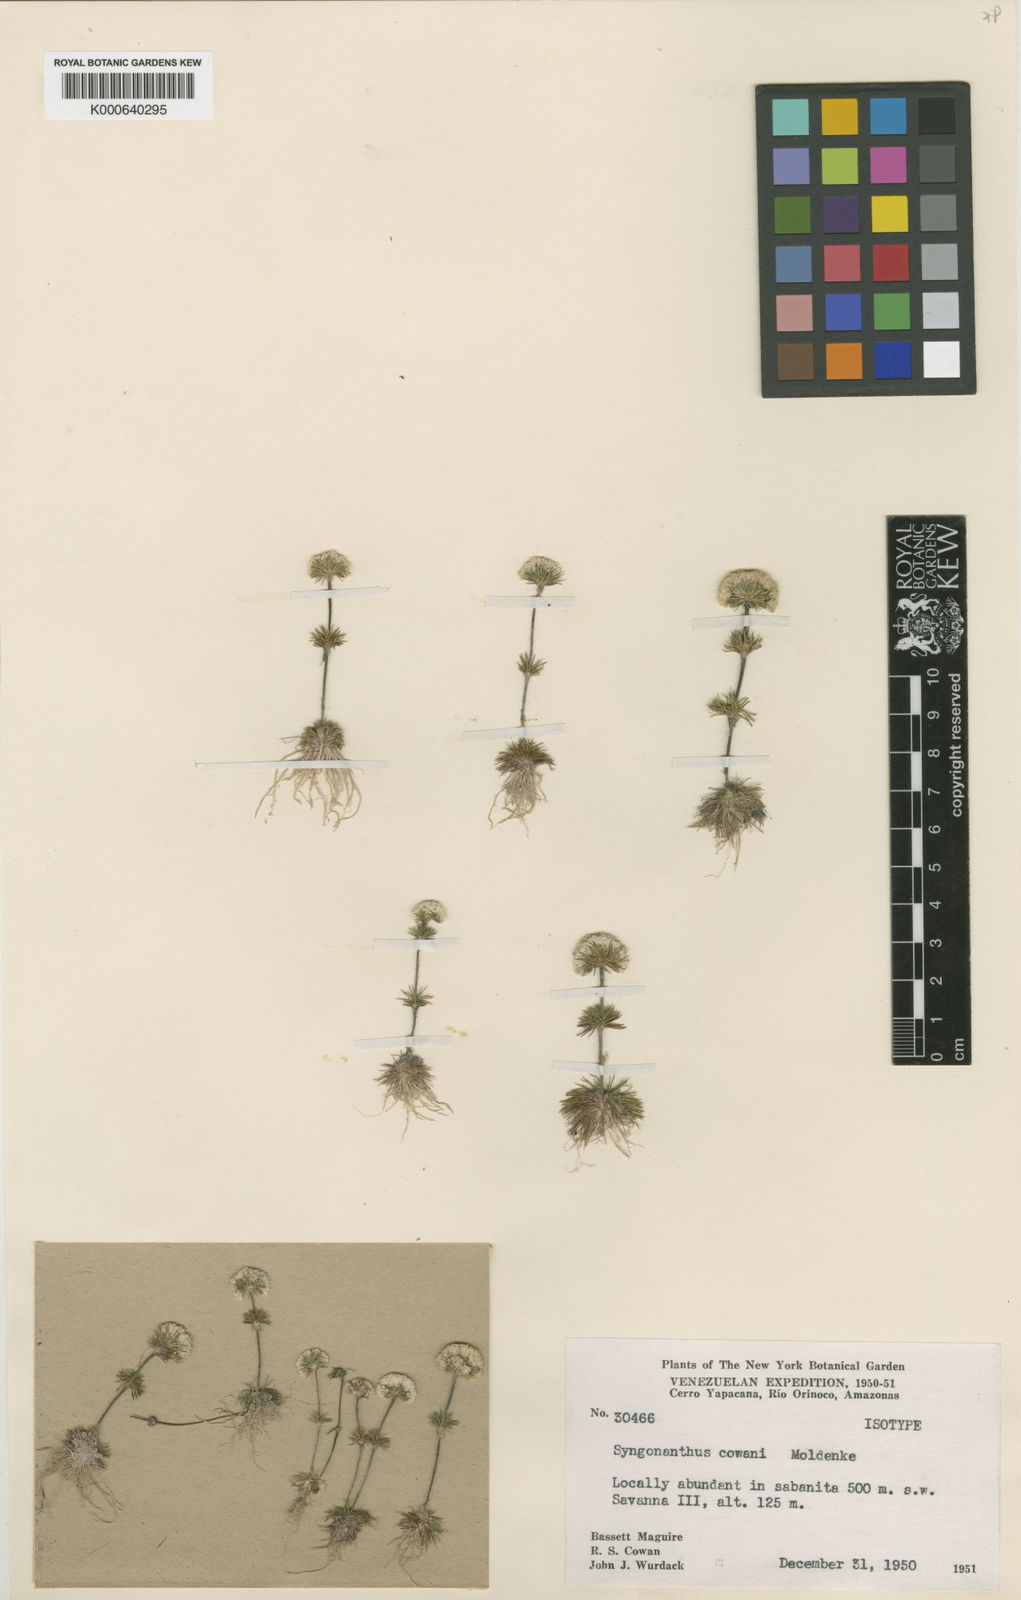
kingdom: Plantae
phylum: Tracheophyta
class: Liliopsida
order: Poales
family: Eriocaulaceae
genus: Syngonanthus
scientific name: Syngonanthus cowanii
